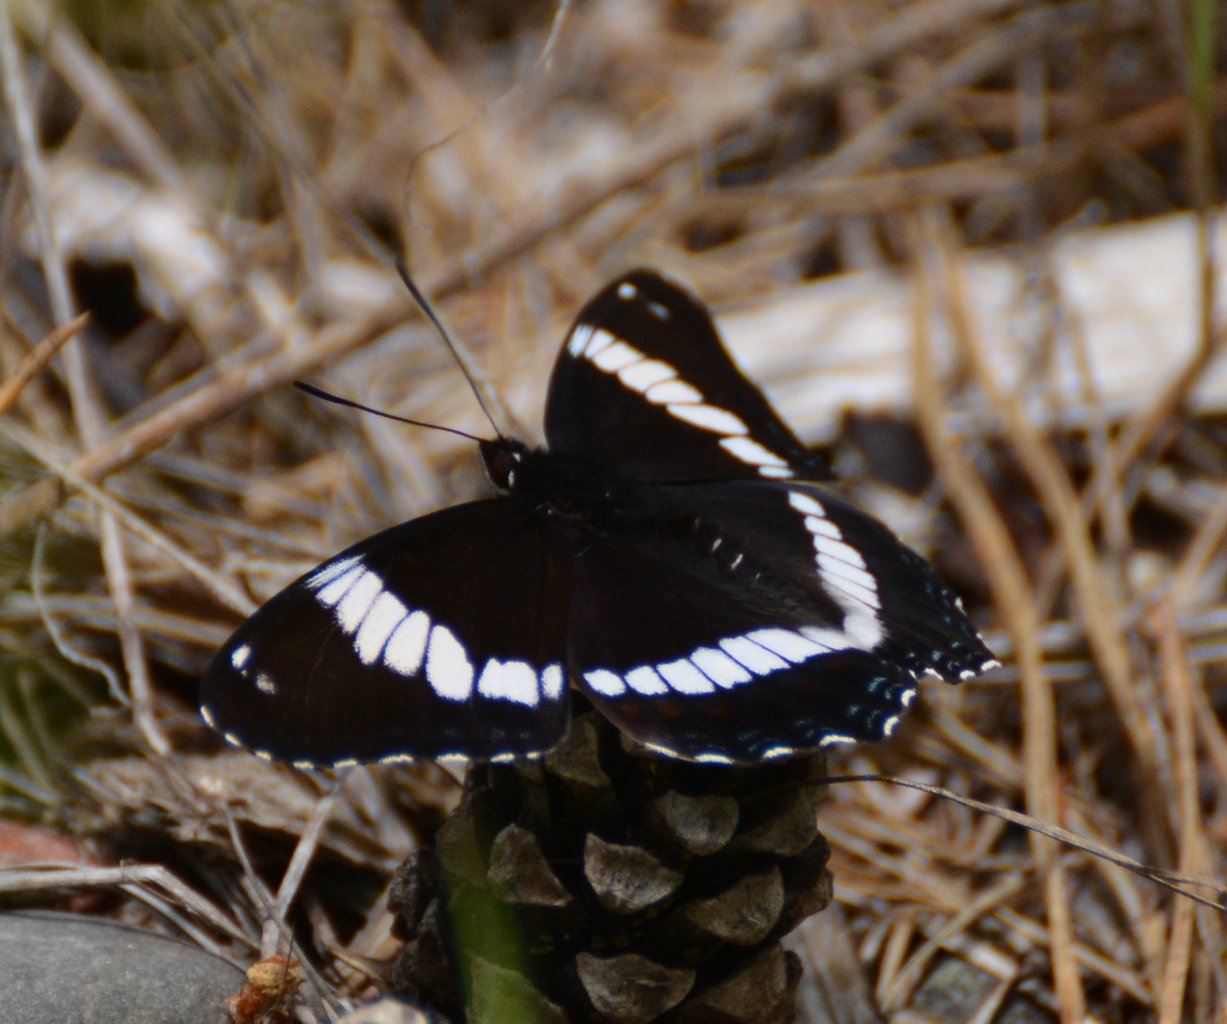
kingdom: Animalia
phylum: Arthropoda
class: Insecta
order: Lepidoptera
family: Nymphalidae
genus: Limenitis
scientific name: Limenitis arthemis
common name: Red-spotted Admiral
